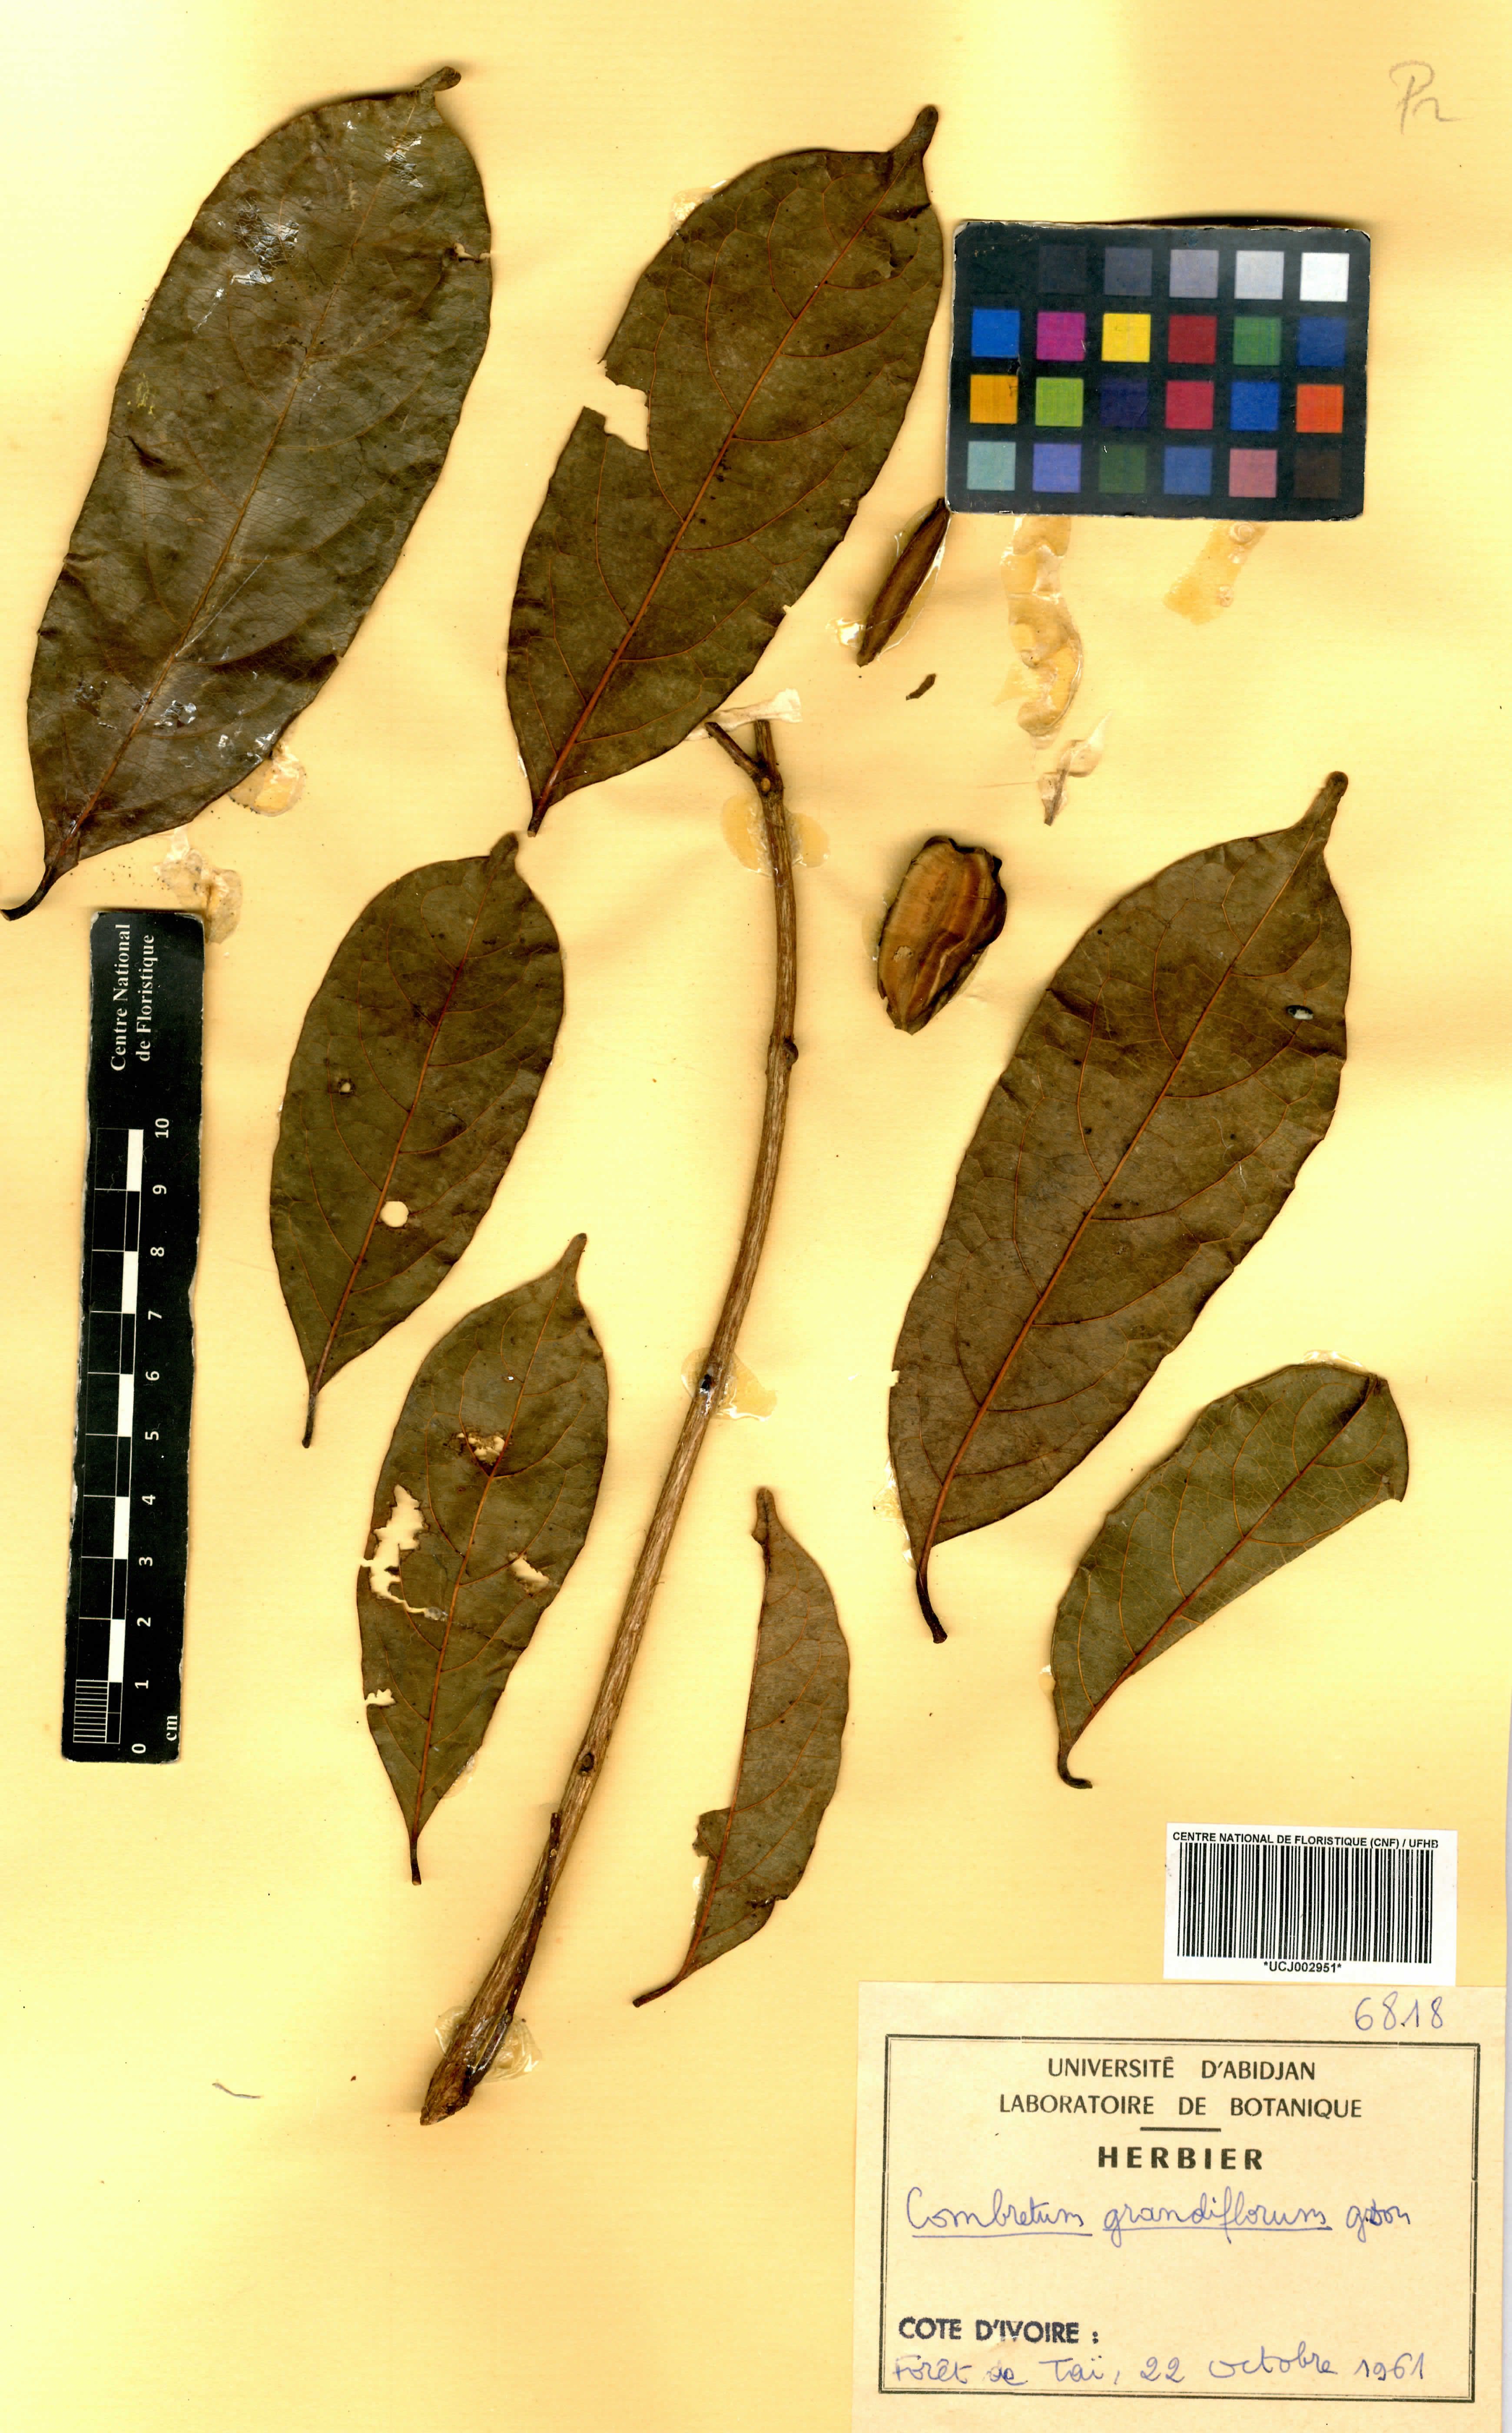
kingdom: Plantae
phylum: Tracheophyta
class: Magnoliopsida
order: Myrtales
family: Combretaceae
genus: Combretum
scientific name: Combretum grandiflorum
